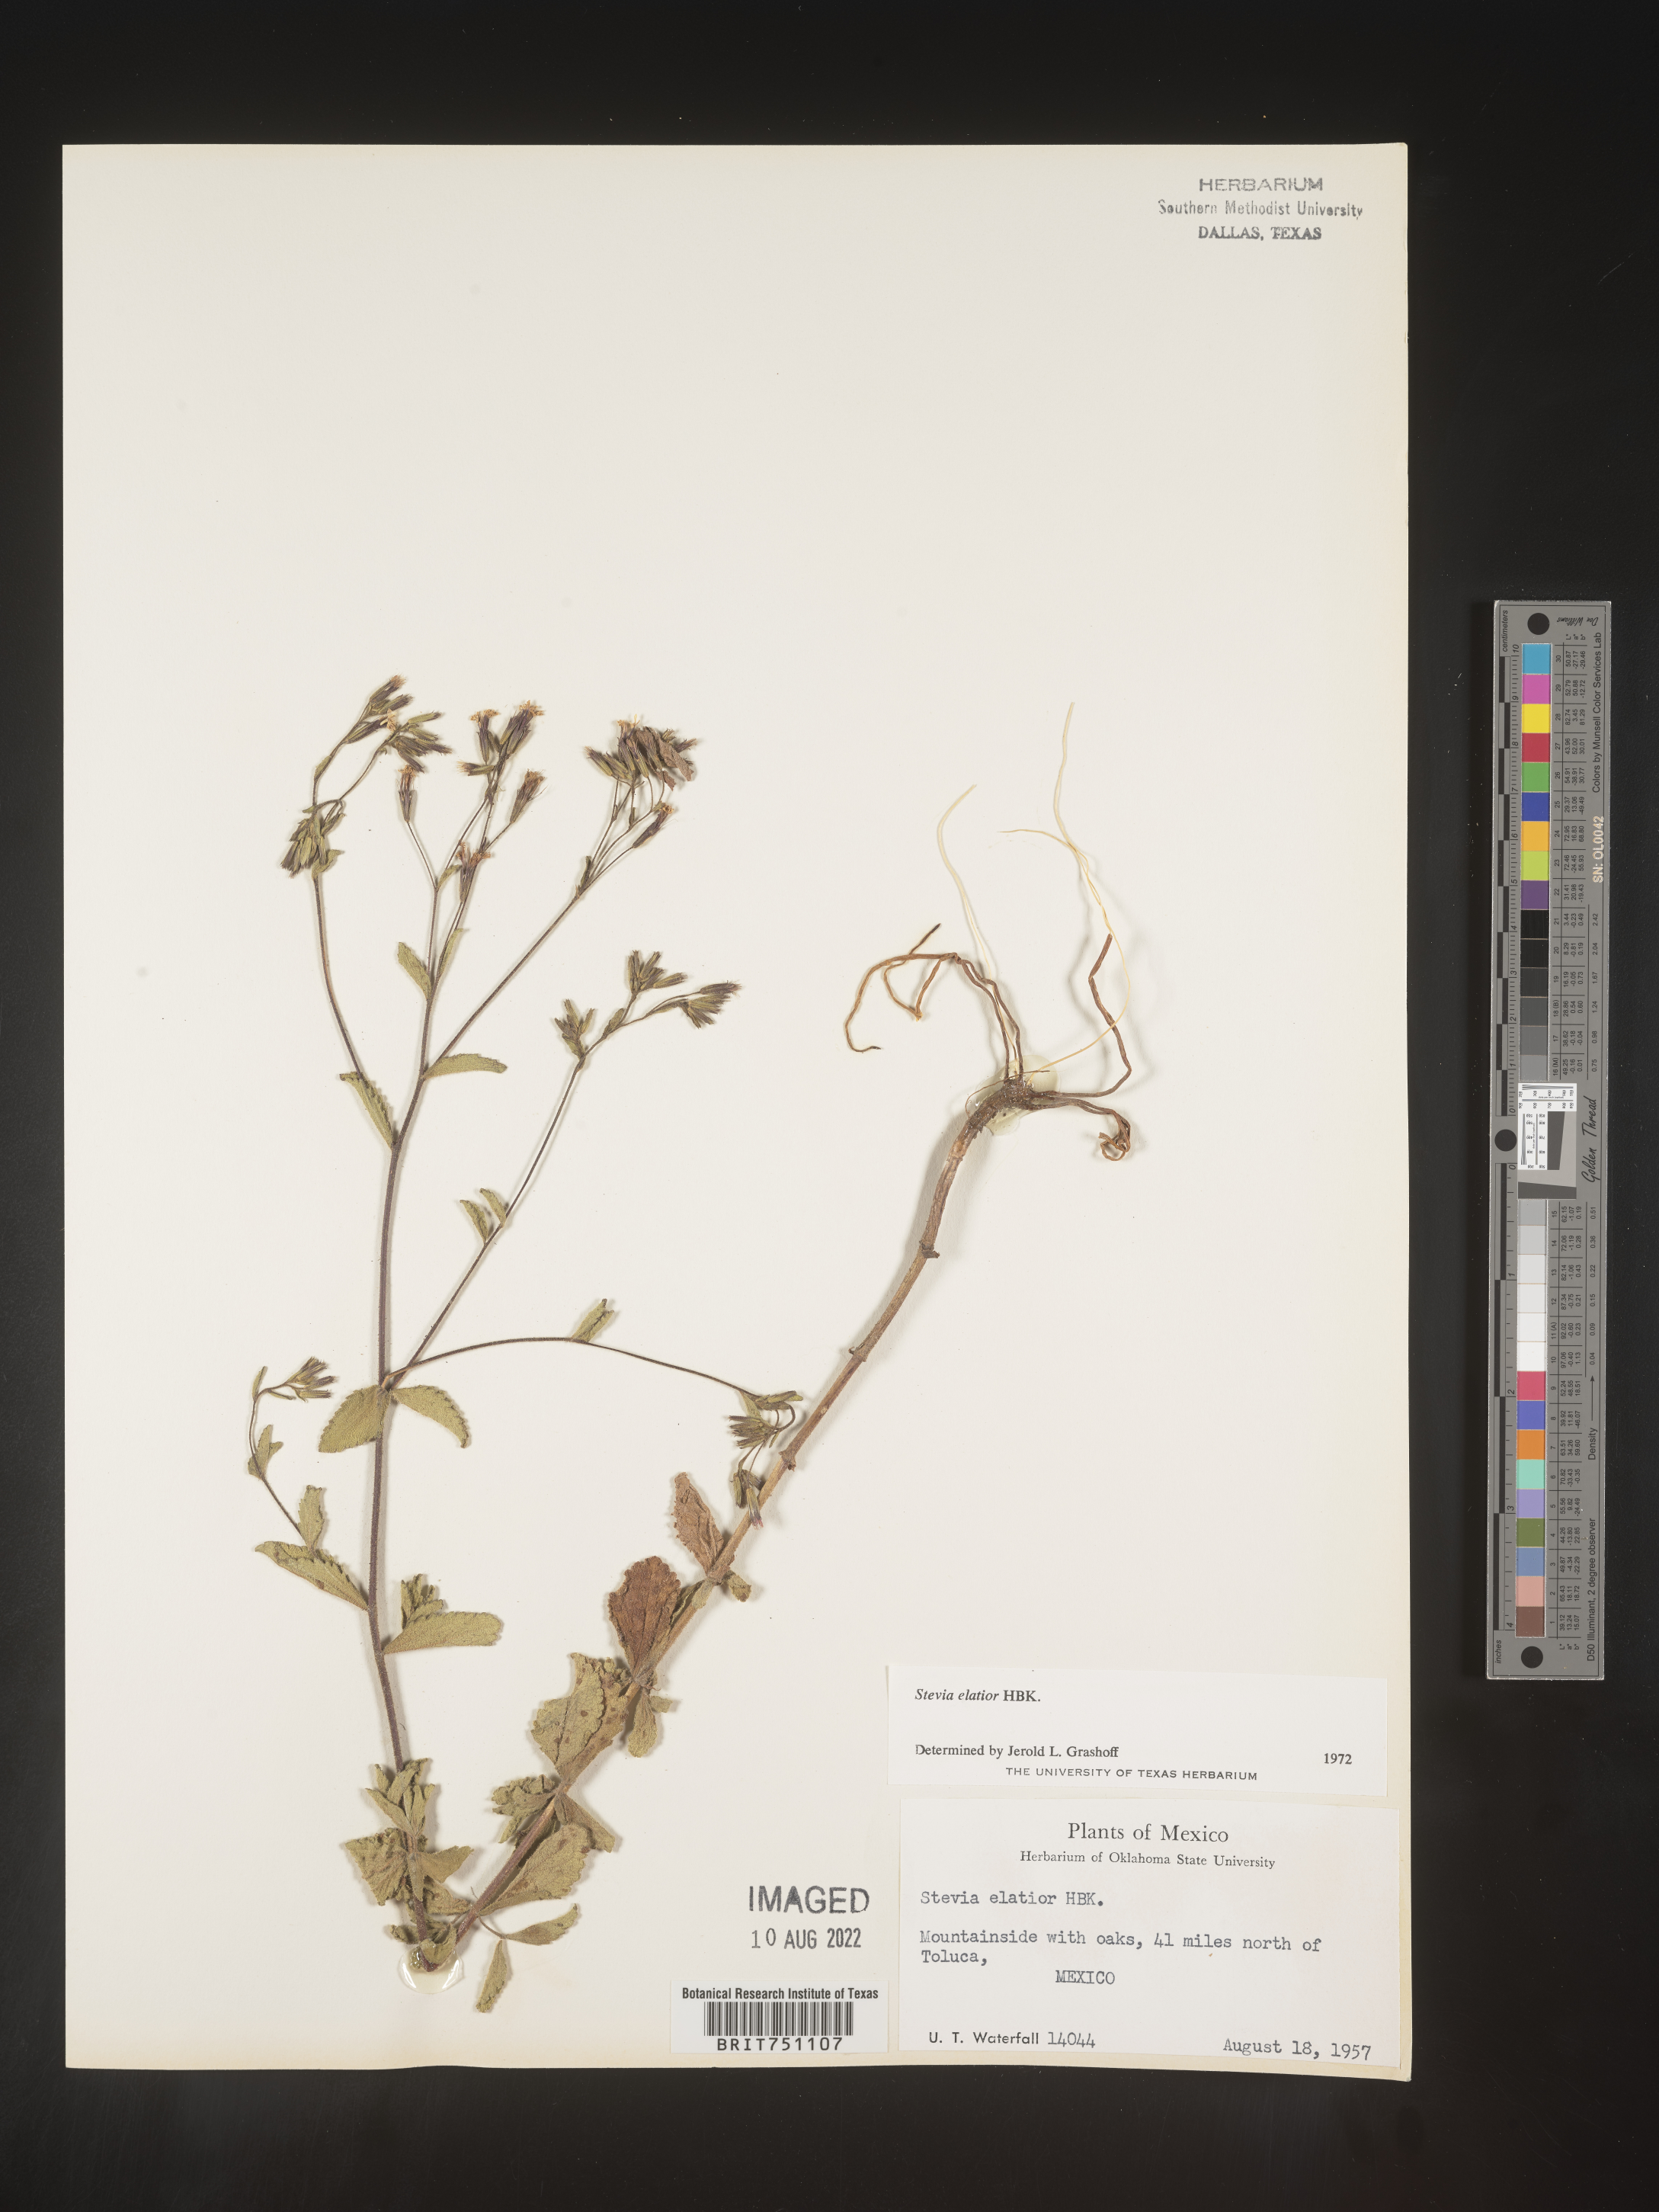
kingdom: Plantae
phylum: Tracheophyta
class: Magnoliopsida
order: Asterales
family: Asteraceae
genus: Stevia
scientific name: Stevia
